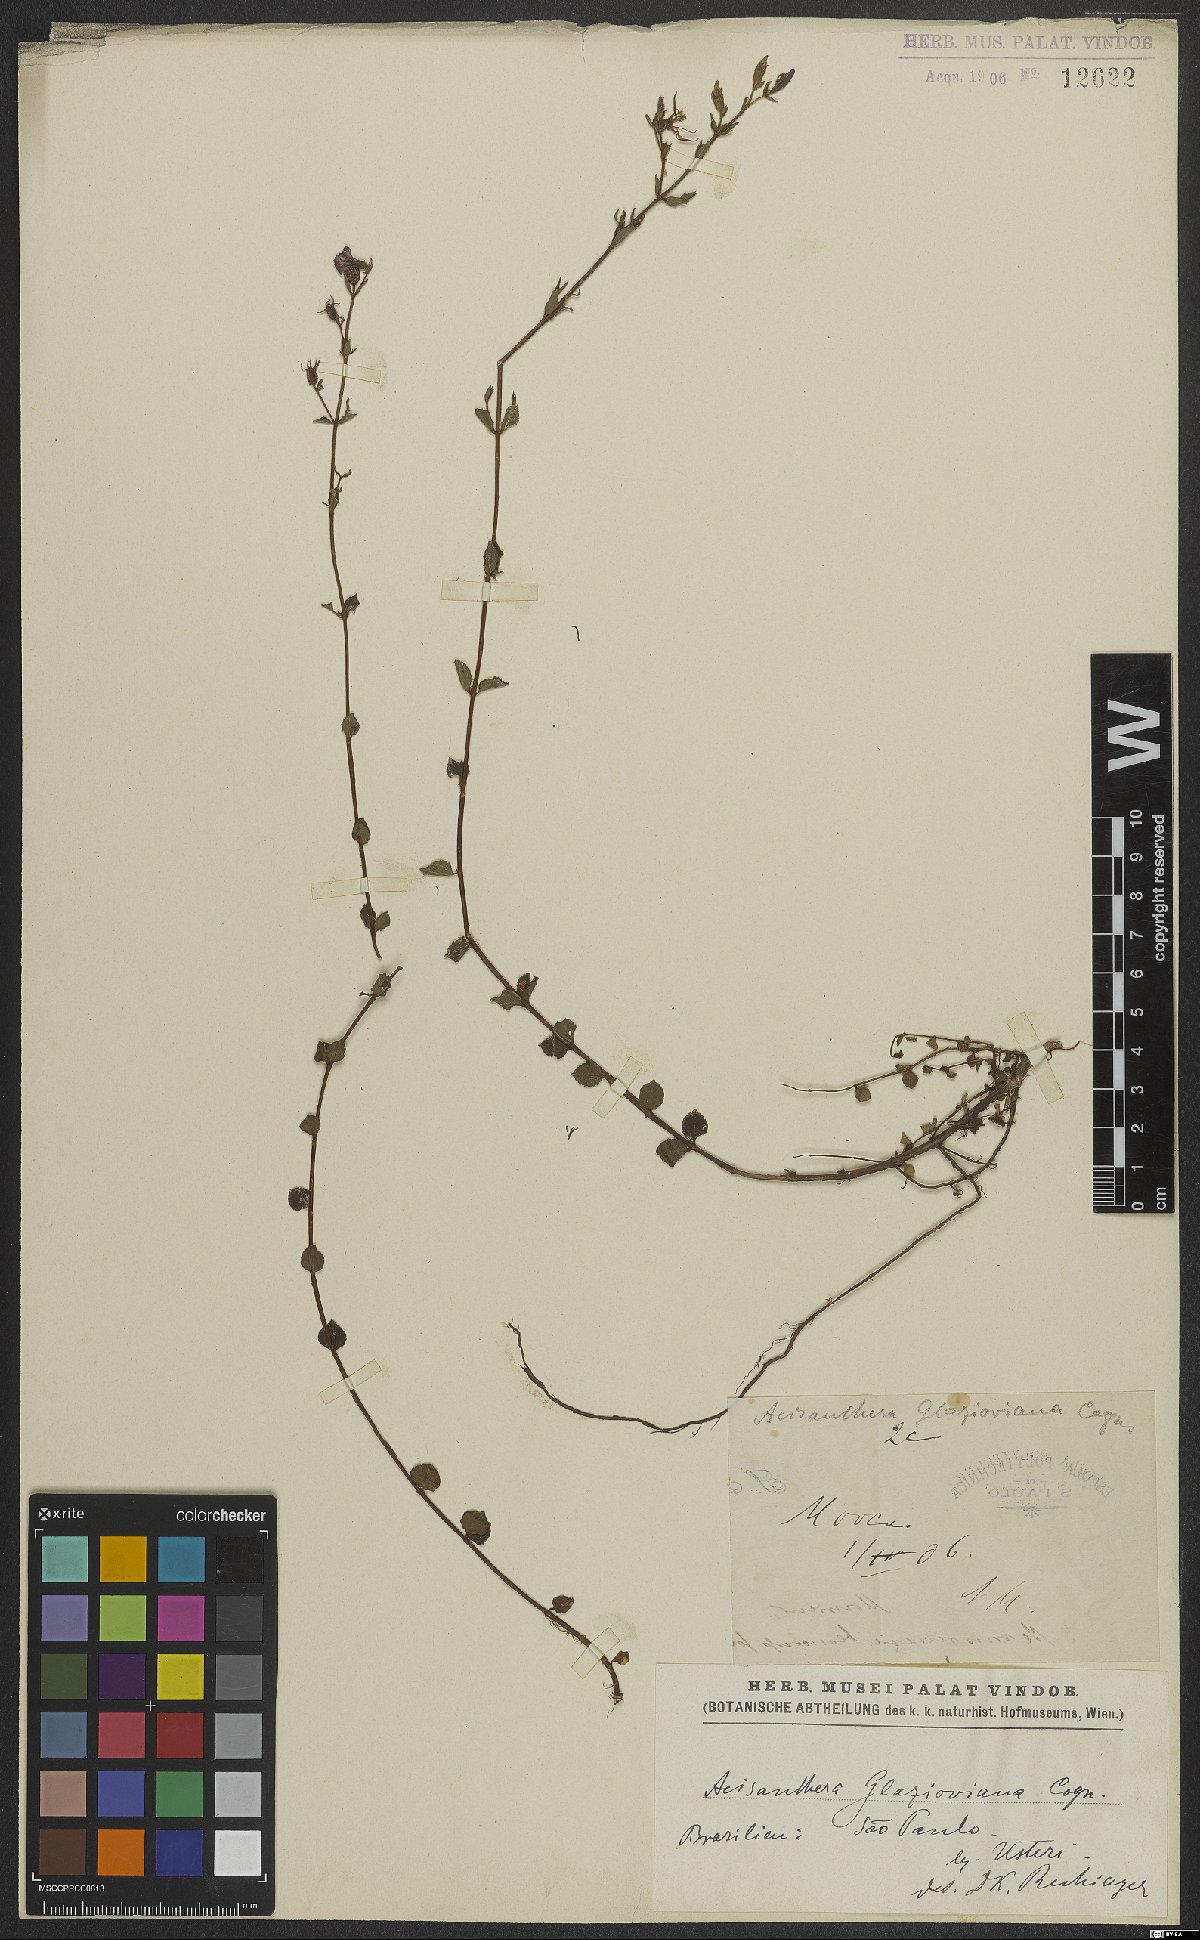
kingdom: Plantae
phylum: Tracheophyta
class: Magnoliopsida
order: Myrtales
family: Melastomataceae
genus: Acisanthera
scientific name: Acisanthera glazioviana
